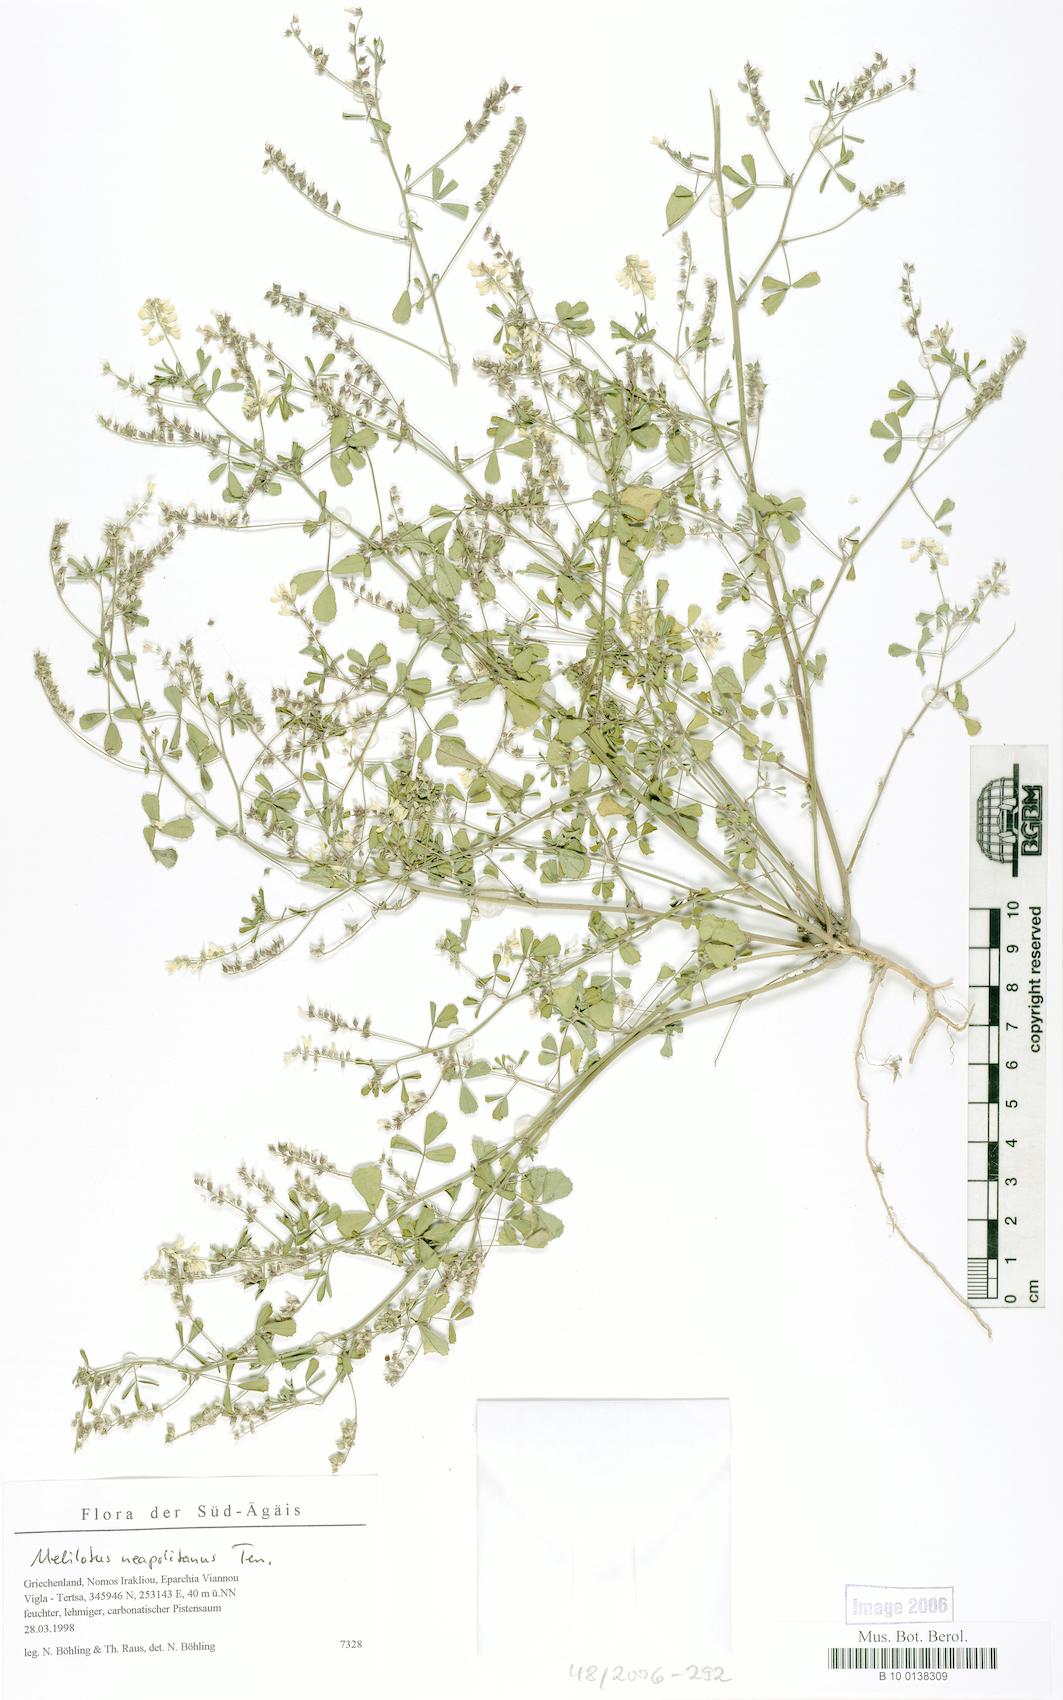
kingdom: Plantae
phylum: Tracheophyta
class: Magnoliopsida
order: Fabales
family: Fabaceae
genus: Melilotus
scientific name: Melilotus neapolitanus
